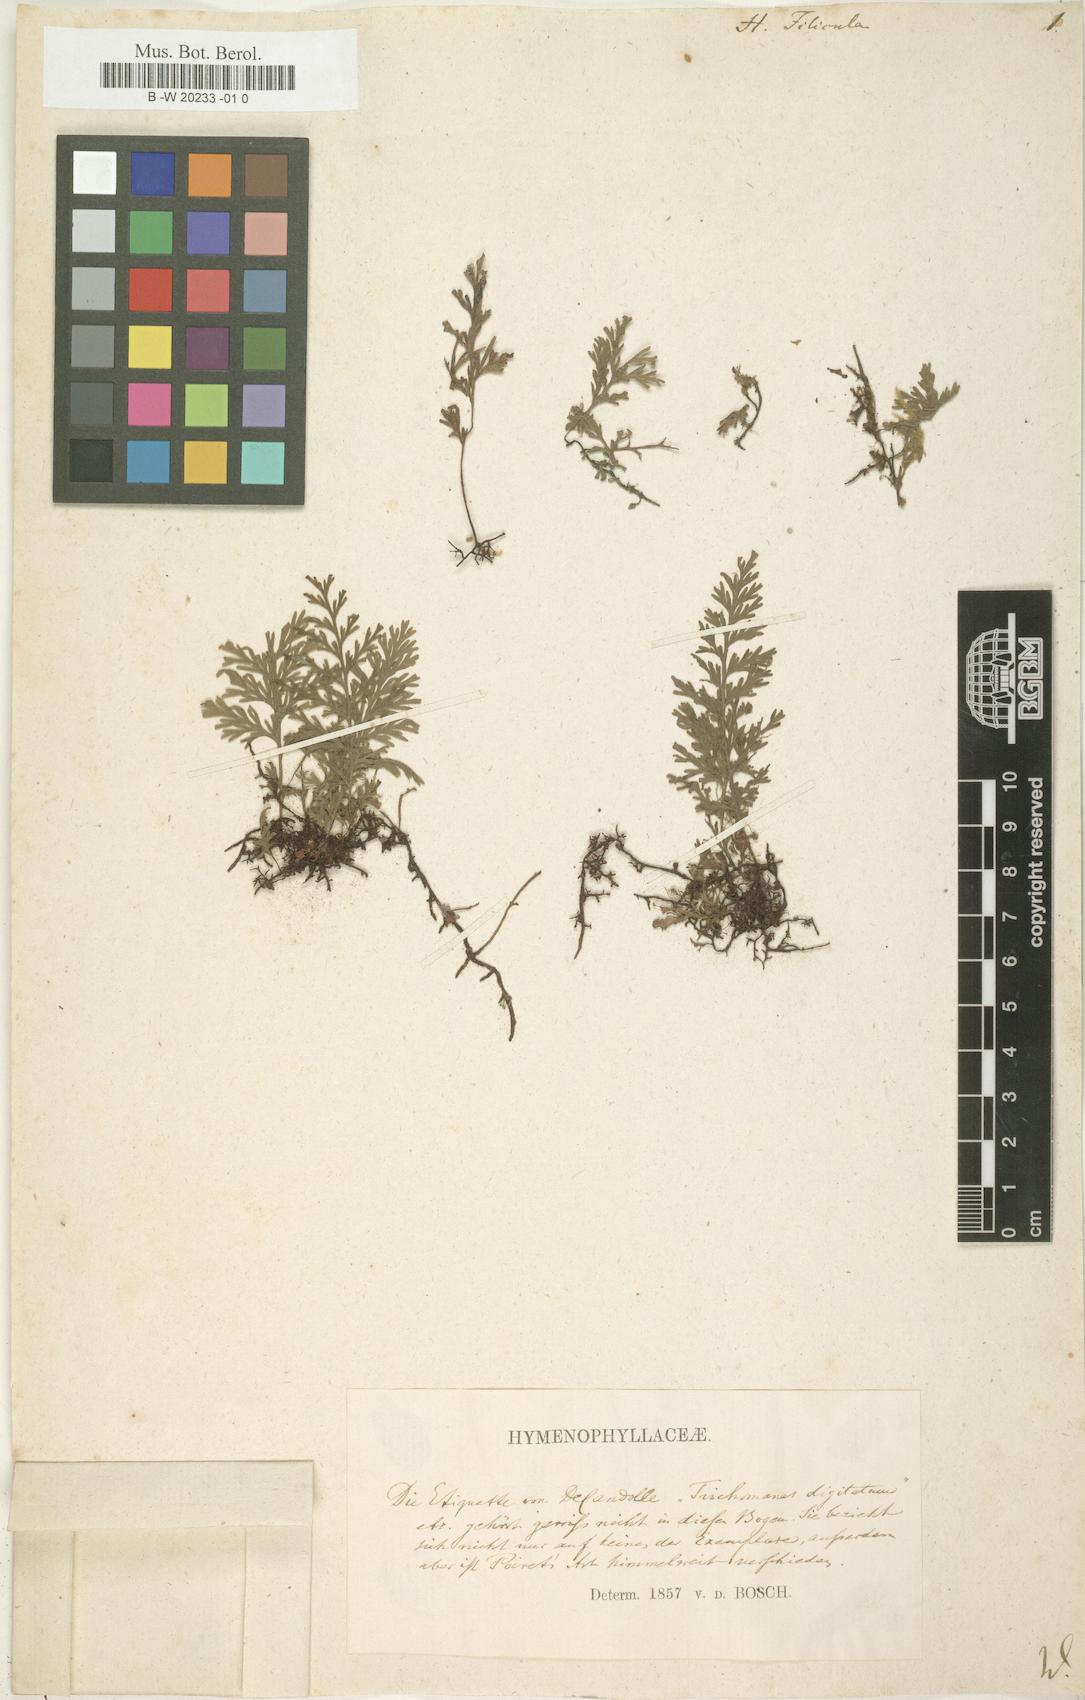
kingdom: Plantae
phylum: Tracheophyta
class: Polypodiopsida
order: Hymenophyllales
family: Hymenophyllaceae
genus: Crepidomanes
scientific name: Crepidomanes bipunctatum
